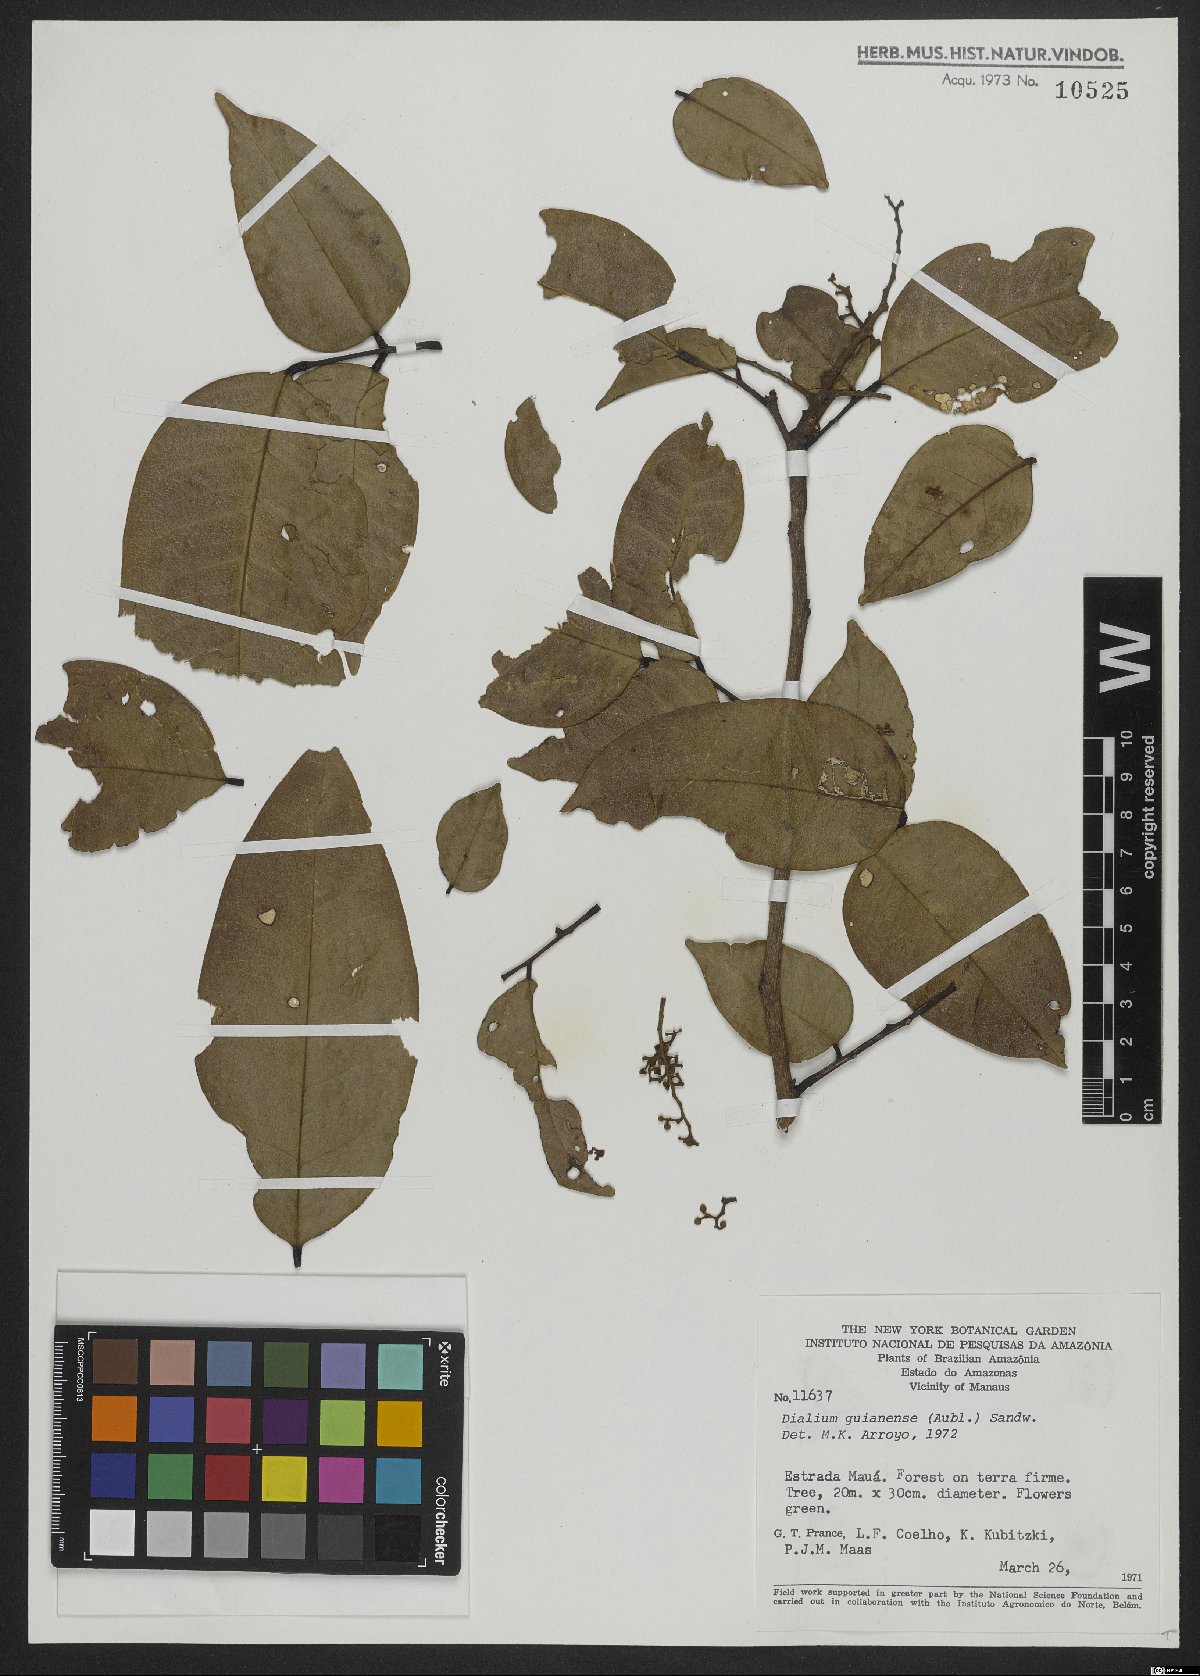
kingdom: Plantae
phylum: Tracheophyta
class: Magnoliopsida
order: Fabales
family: Fabaceae
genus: Dialium
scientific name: Dialium guianense
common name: Ironwood
